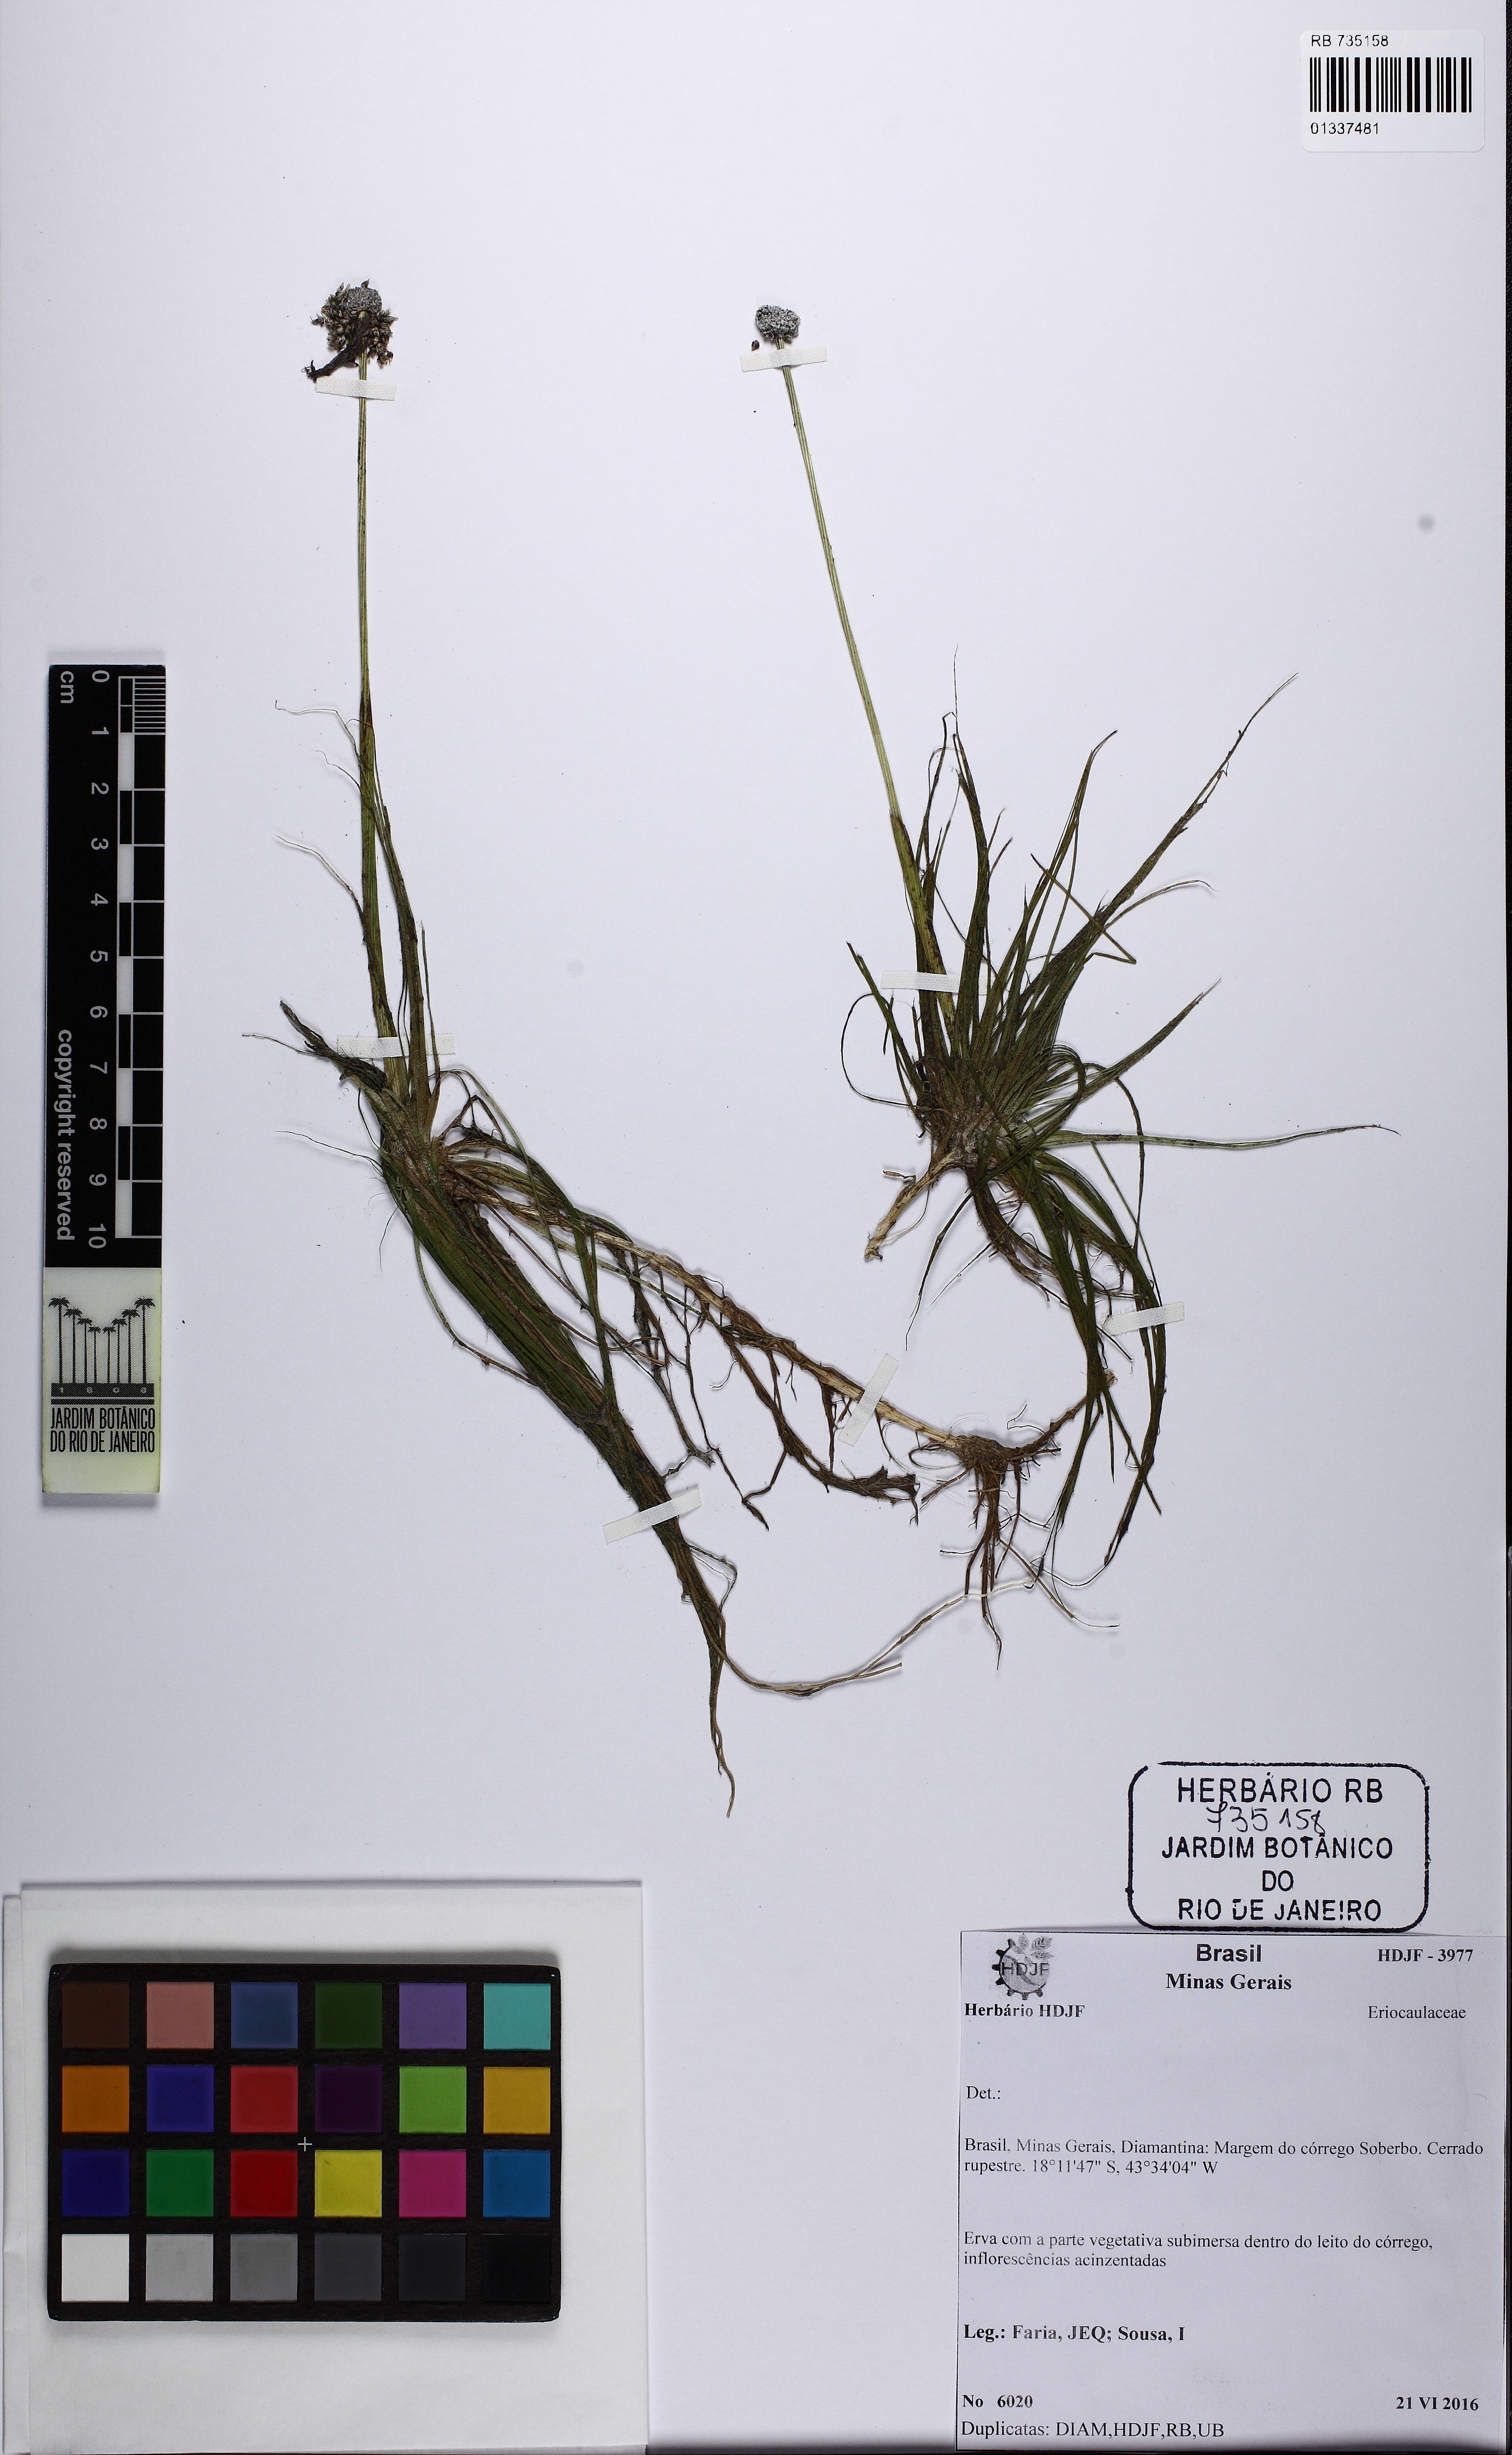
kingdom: Plantae
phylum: Tracheophyta
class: Liliopsida
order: Poales
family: Eriocaulaceae
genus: Eriocaulon
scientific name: Eriocaulon
